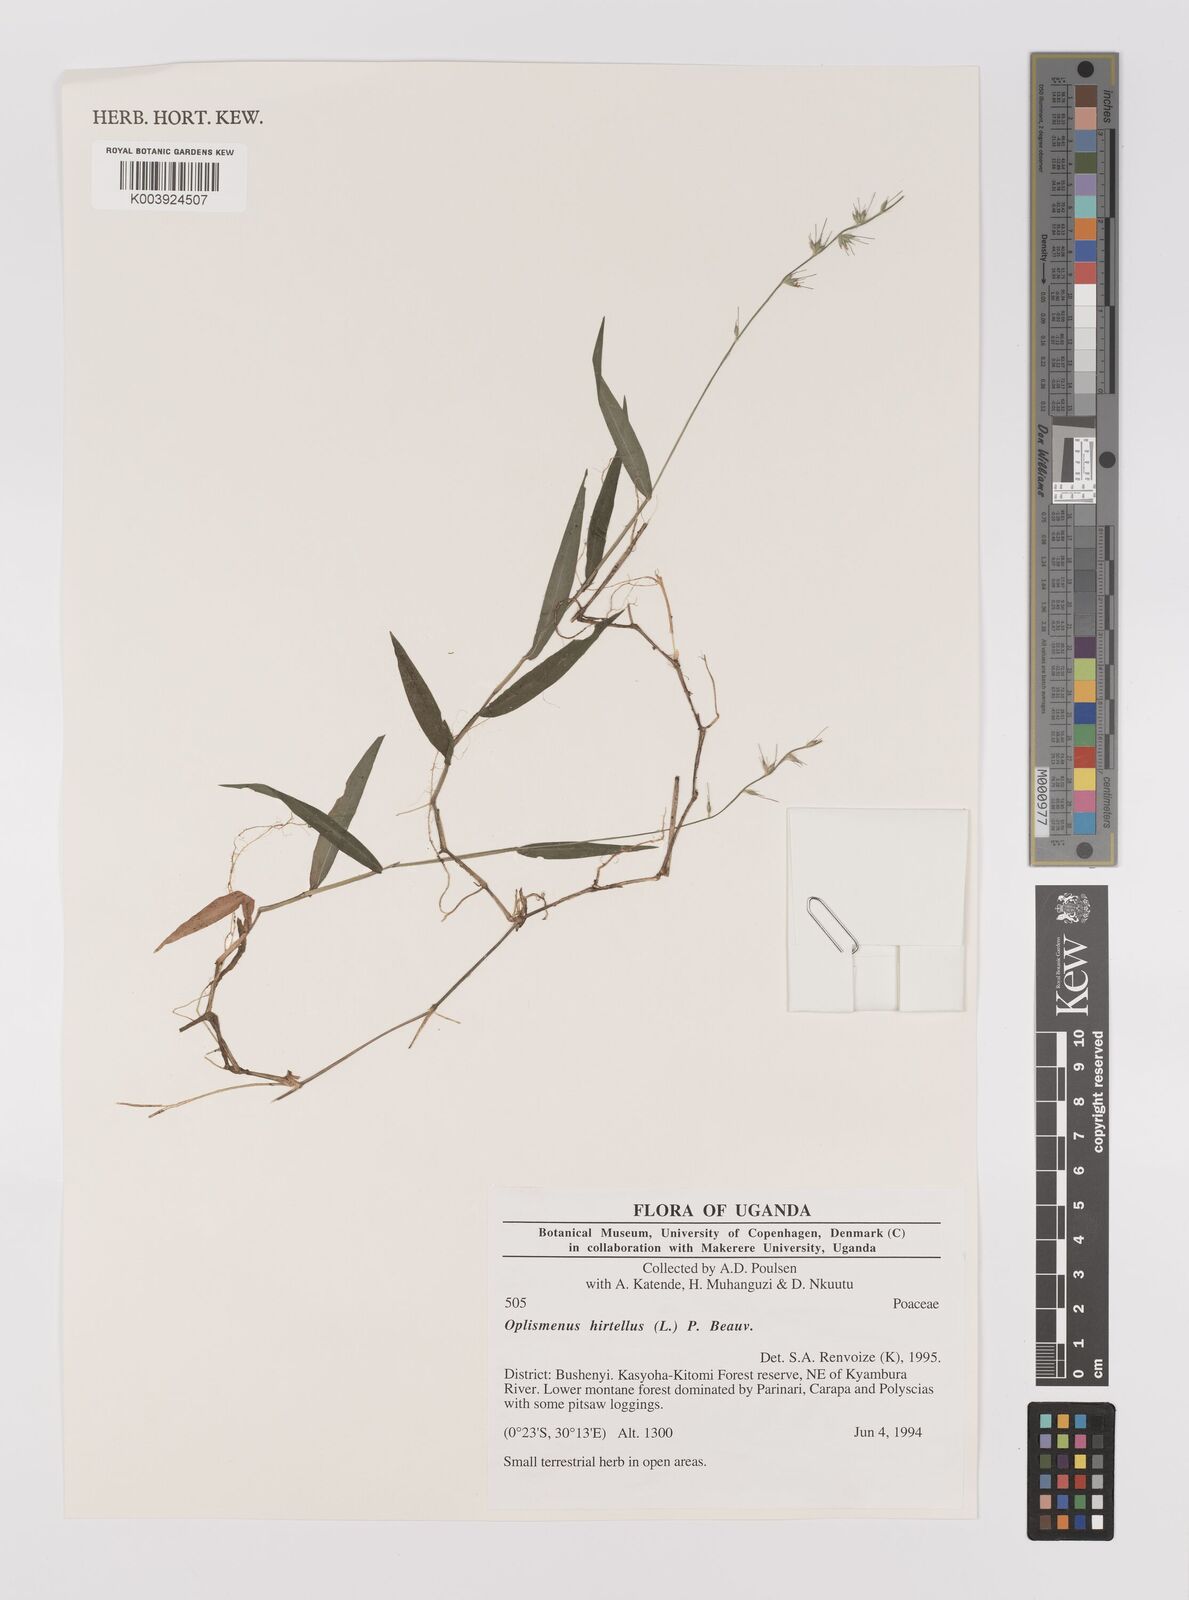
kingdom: Plantae
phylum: Tracheophyta
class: Liliopsida
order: Poales
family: Poaceae
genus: Oplismenus
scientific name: Oplismenus hirtellus
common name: Basketgrass
